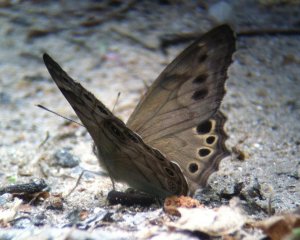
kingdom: Animalia
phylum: Arthropoda
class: Insecta
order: Lepidoptera
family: Nymphalidae
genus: Lethe
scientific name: Lethe anthedon
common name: Northern Pearly-Eye
